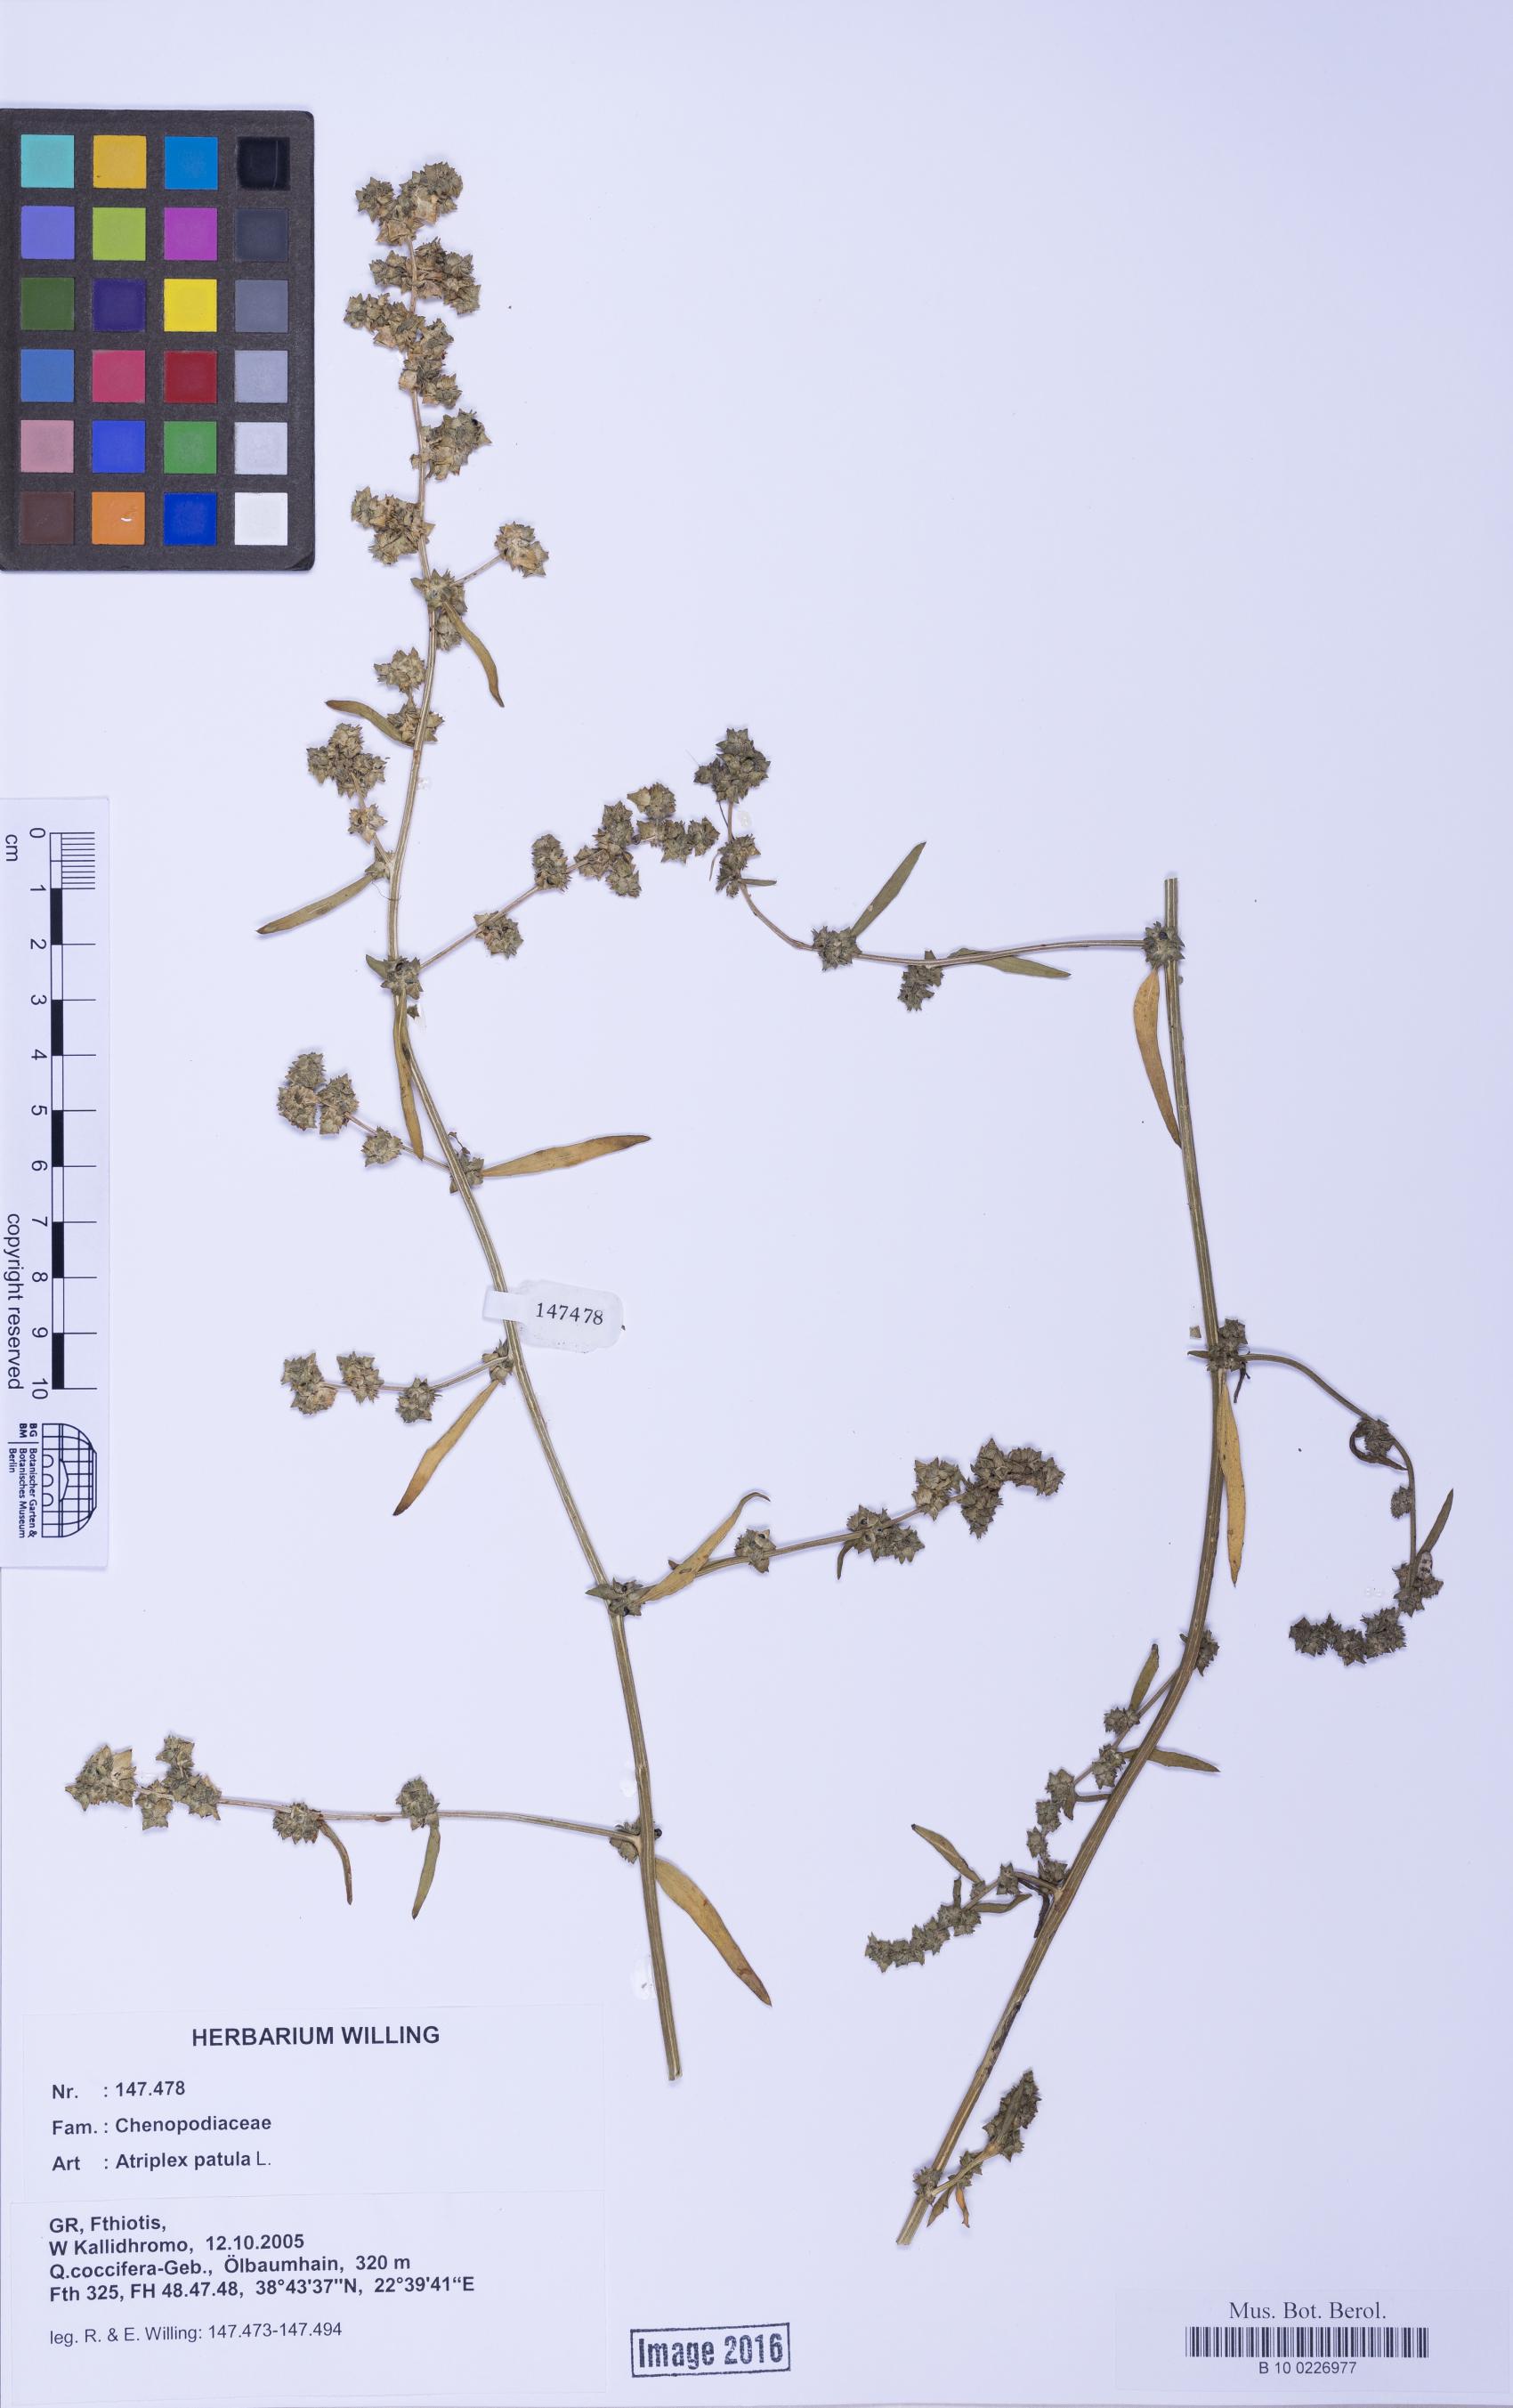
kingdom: Plantae
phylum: Tracheophyta
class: Magnoliopsida
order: Caryophyllales
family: Amaranthaceae
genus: Atriplex
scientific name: Atriplex patula
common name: Common orache
